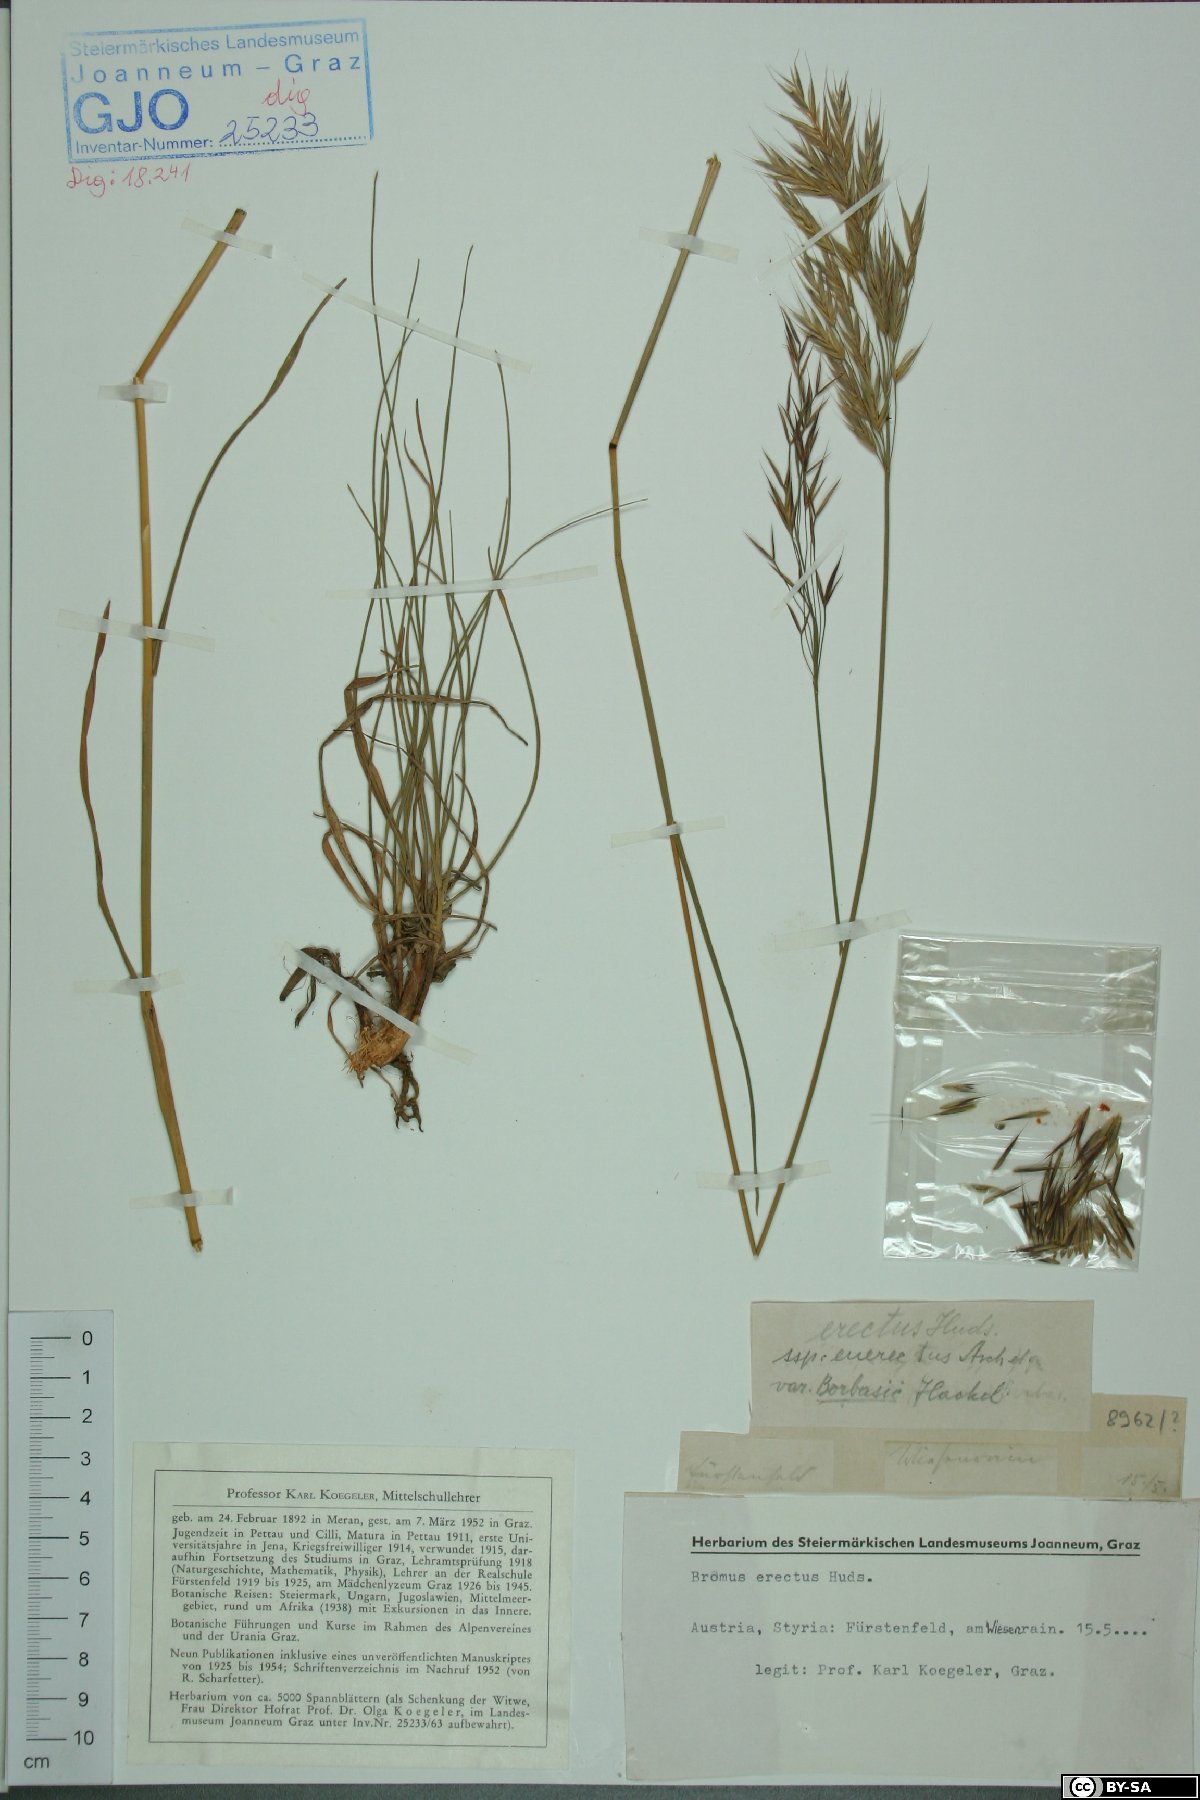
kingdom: Plantae
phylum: Tracheophyta
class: Liliopsida
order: Poales
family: Poaceae
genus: Bromus
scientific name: Bromus erectus
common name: Erect brome
